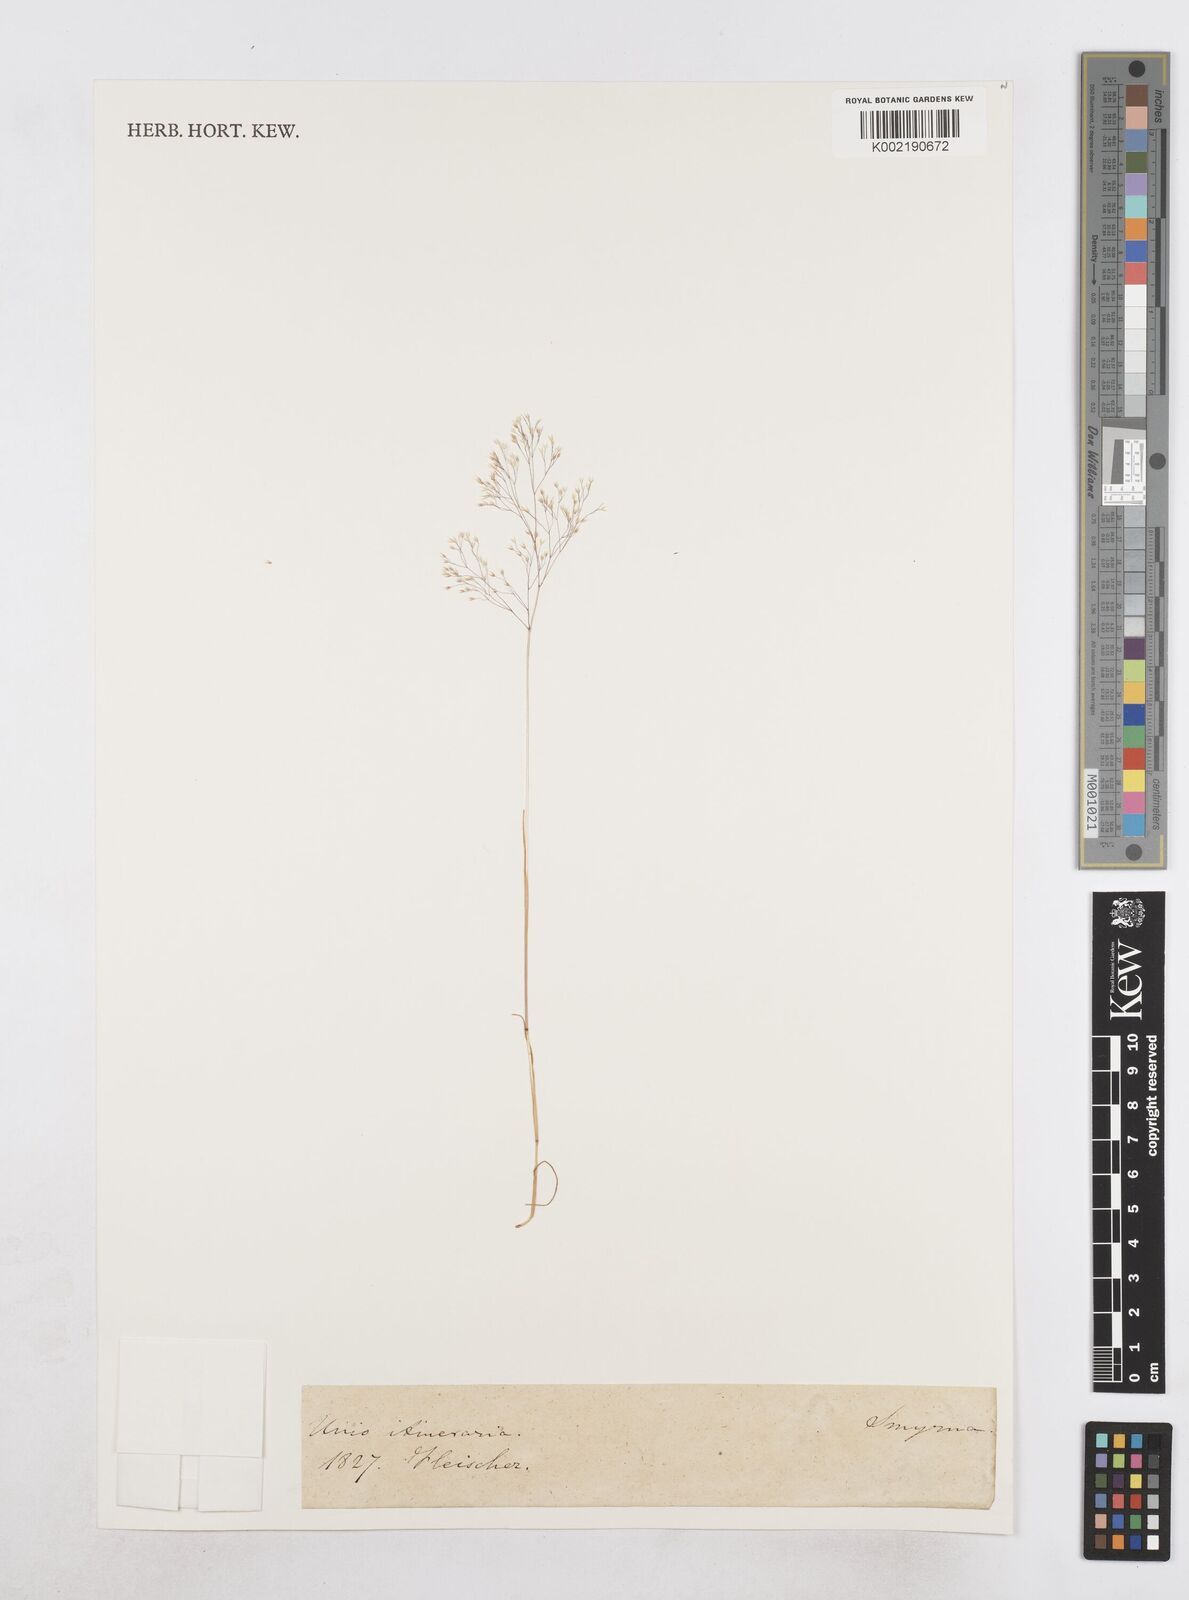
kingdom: Plantae
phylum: Tracheophyta
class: Liliopsida
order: Poales
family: Poaceae
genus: Sphenopus
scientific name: Sphenopus divaricatus
